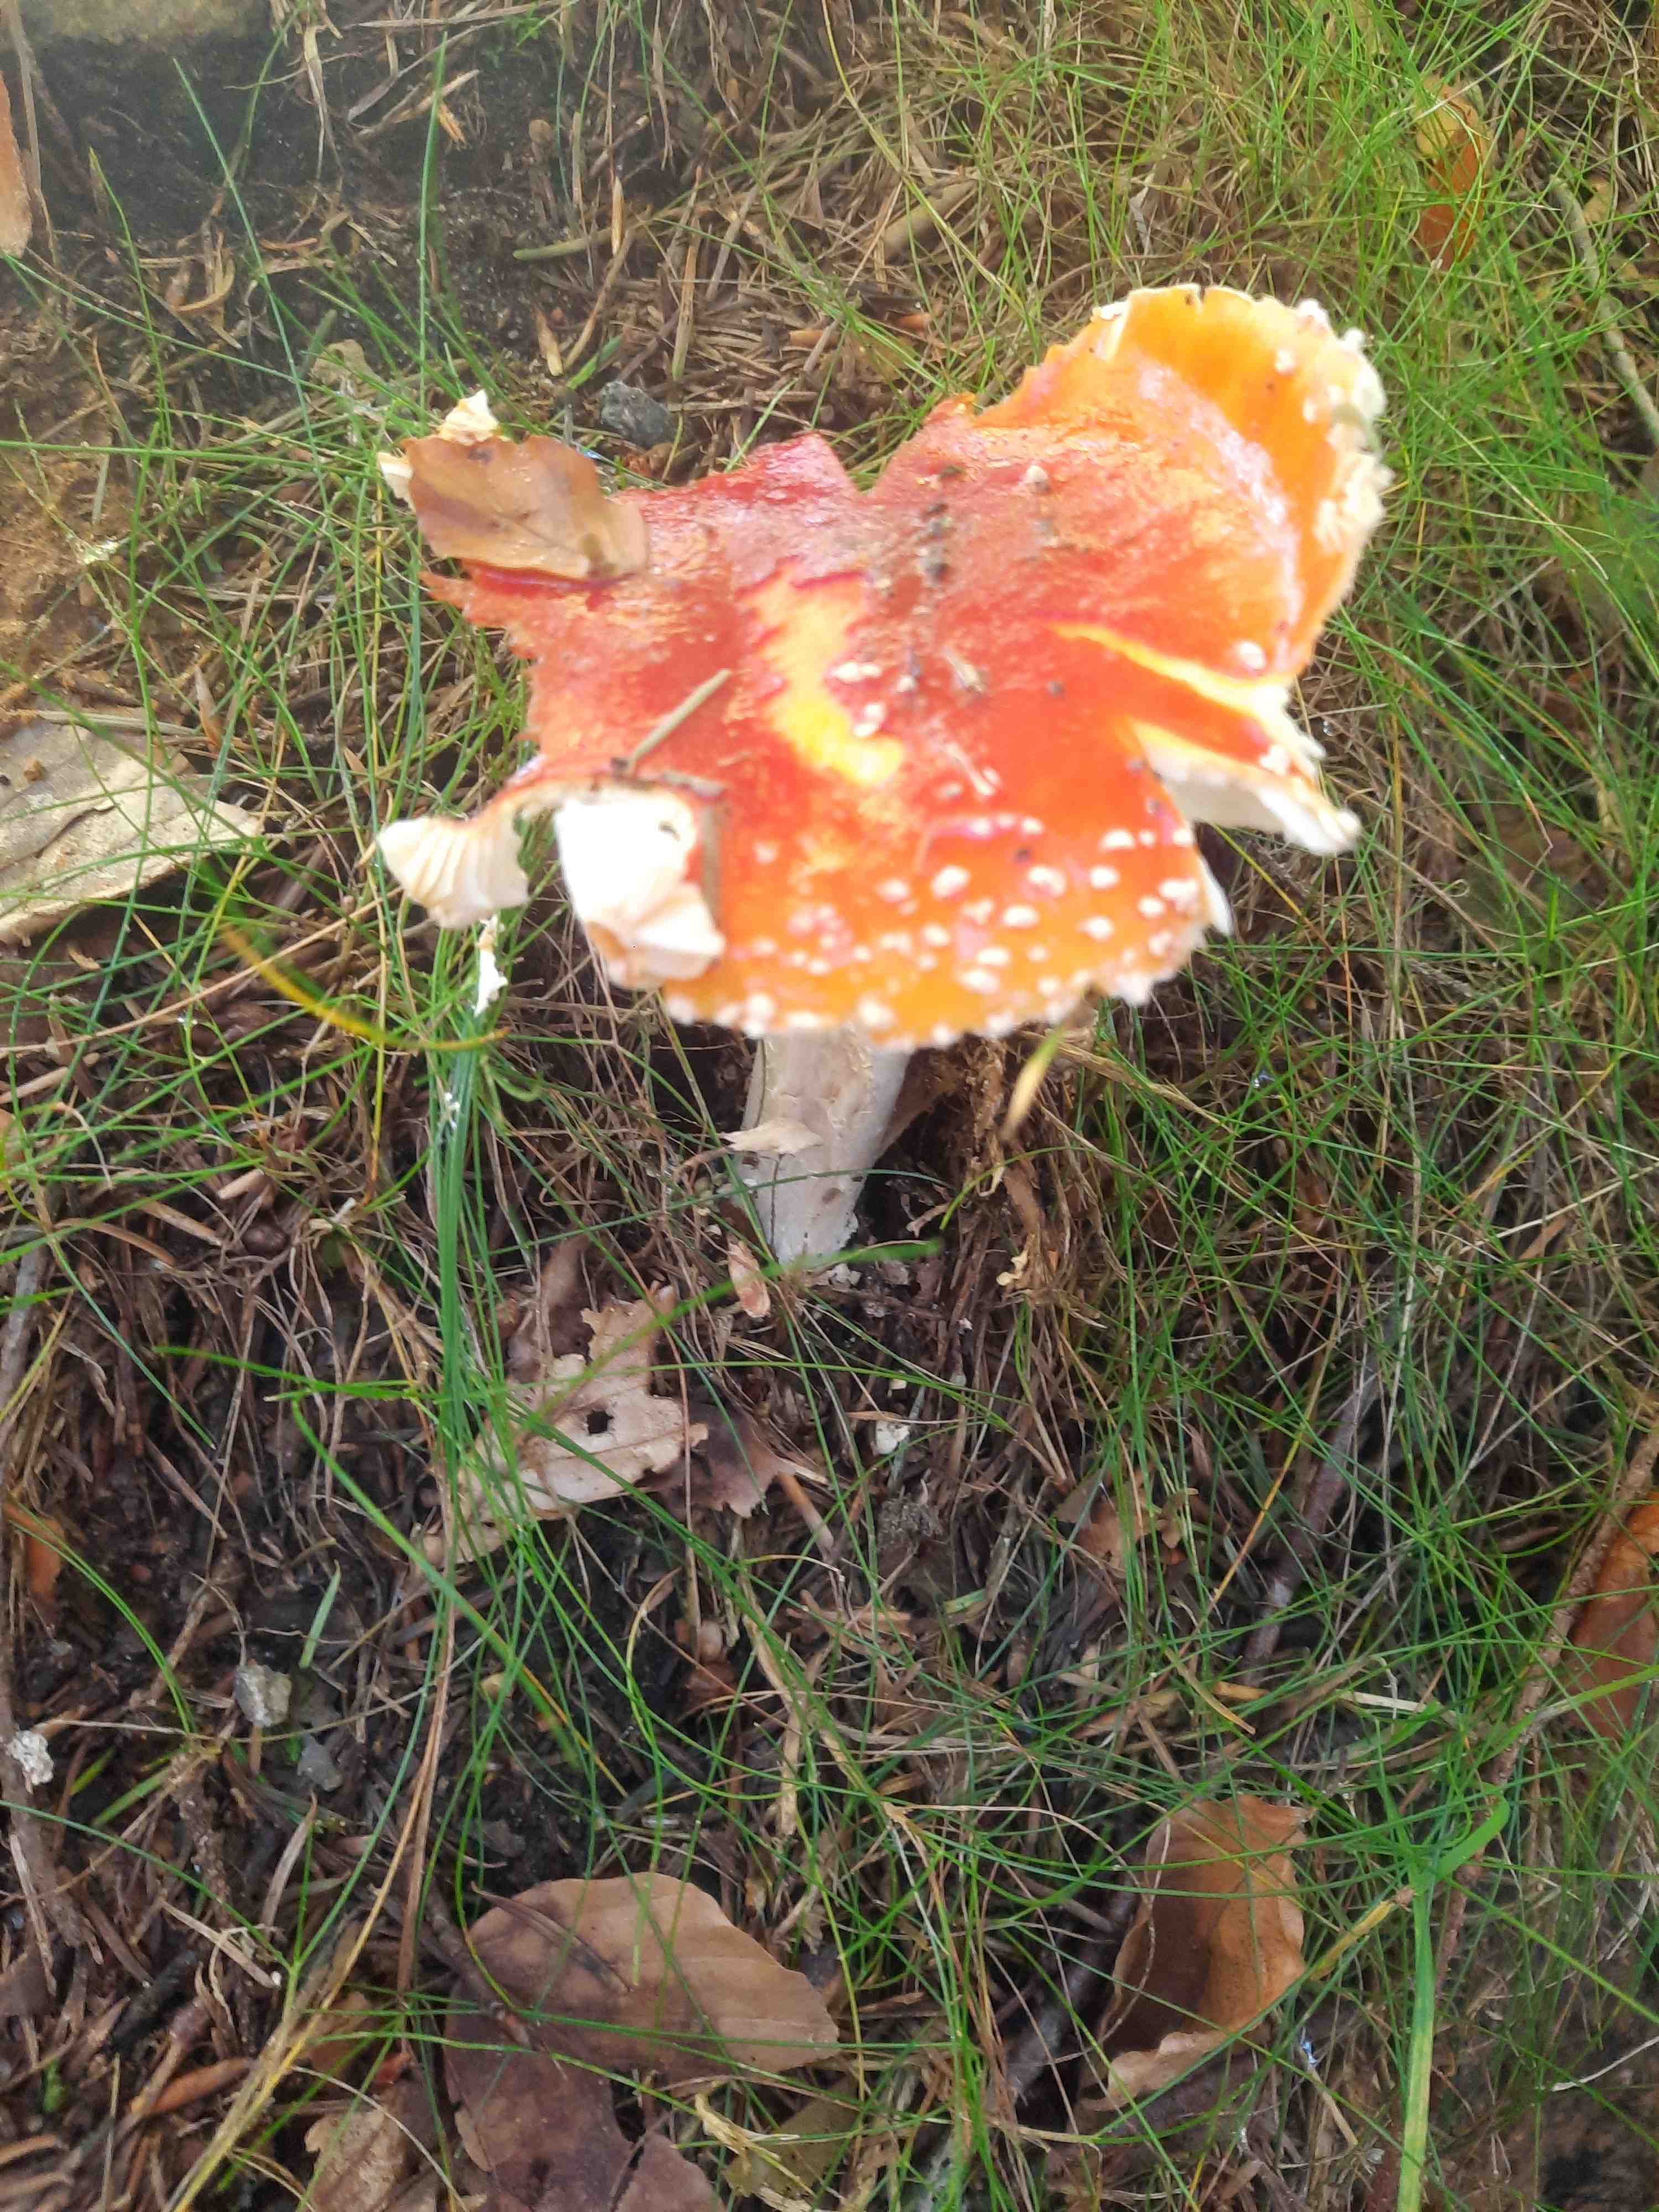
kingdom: Fungi
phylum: Basidiomycota
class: Agaricomycetes
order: Agaricales
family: Amanitaceae
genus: Amanita
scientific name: Amanita muscaria
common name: rød fluesvamp
